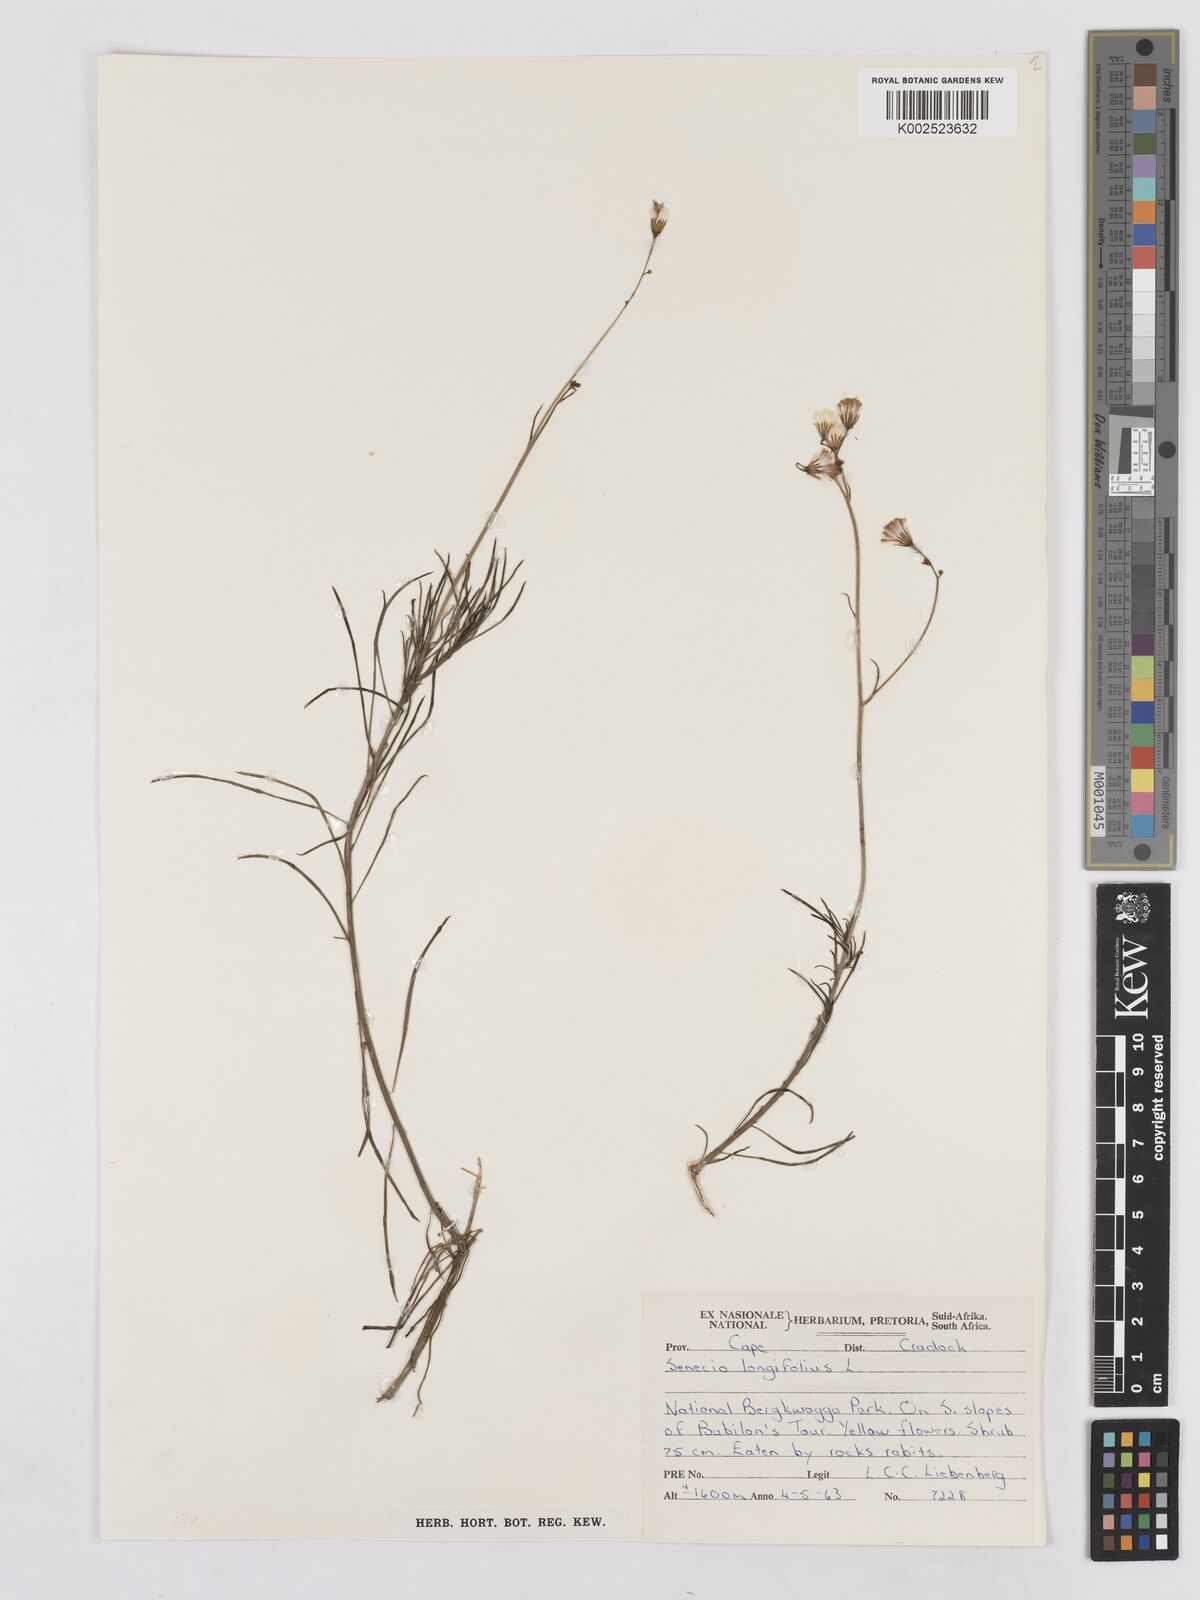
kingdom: Plantae
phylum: Tracheophyta
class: Magnoliopsida
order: Asterales
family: Asteraceae
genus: Senecio
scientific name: Senecio linifolius
